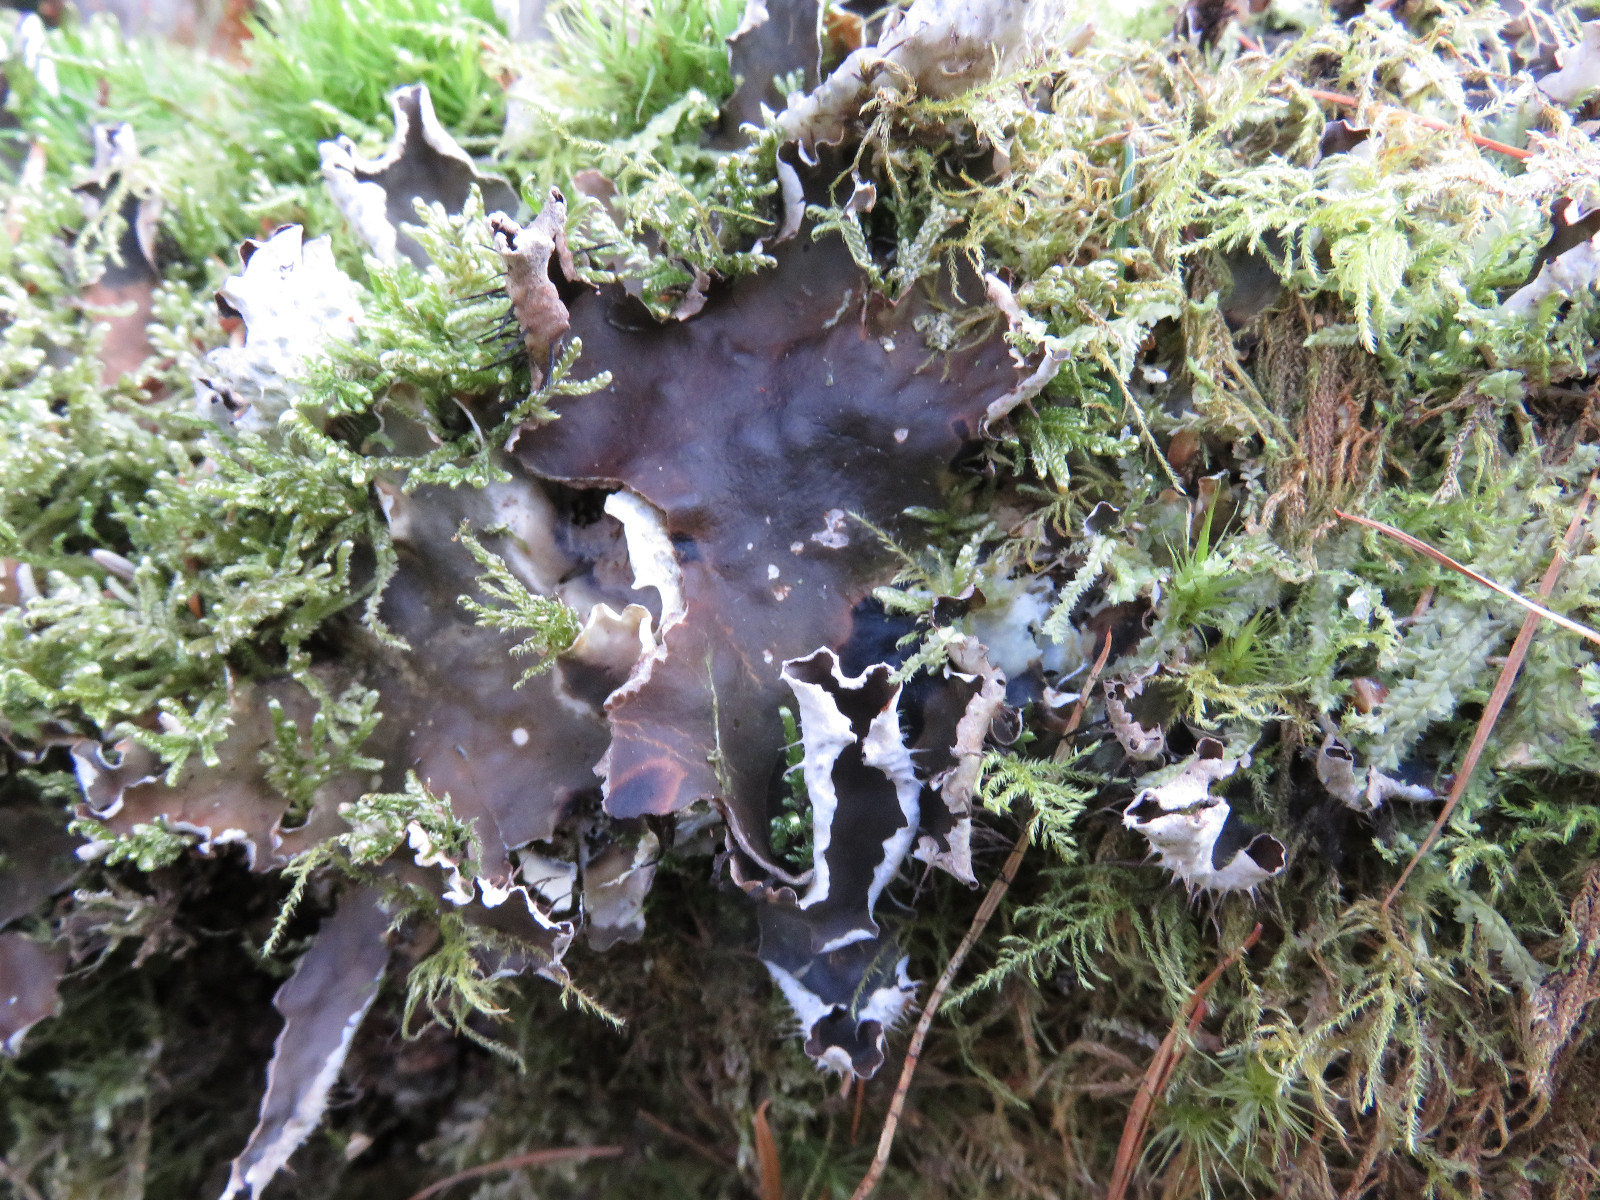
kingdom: Fungi
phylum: Ascomycota
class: Lecanoromycetes
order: Peltigerales
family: Peltigeraceae
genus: Peltigera
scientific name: Peltigera hymenina
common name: hinde-skjoldlav
